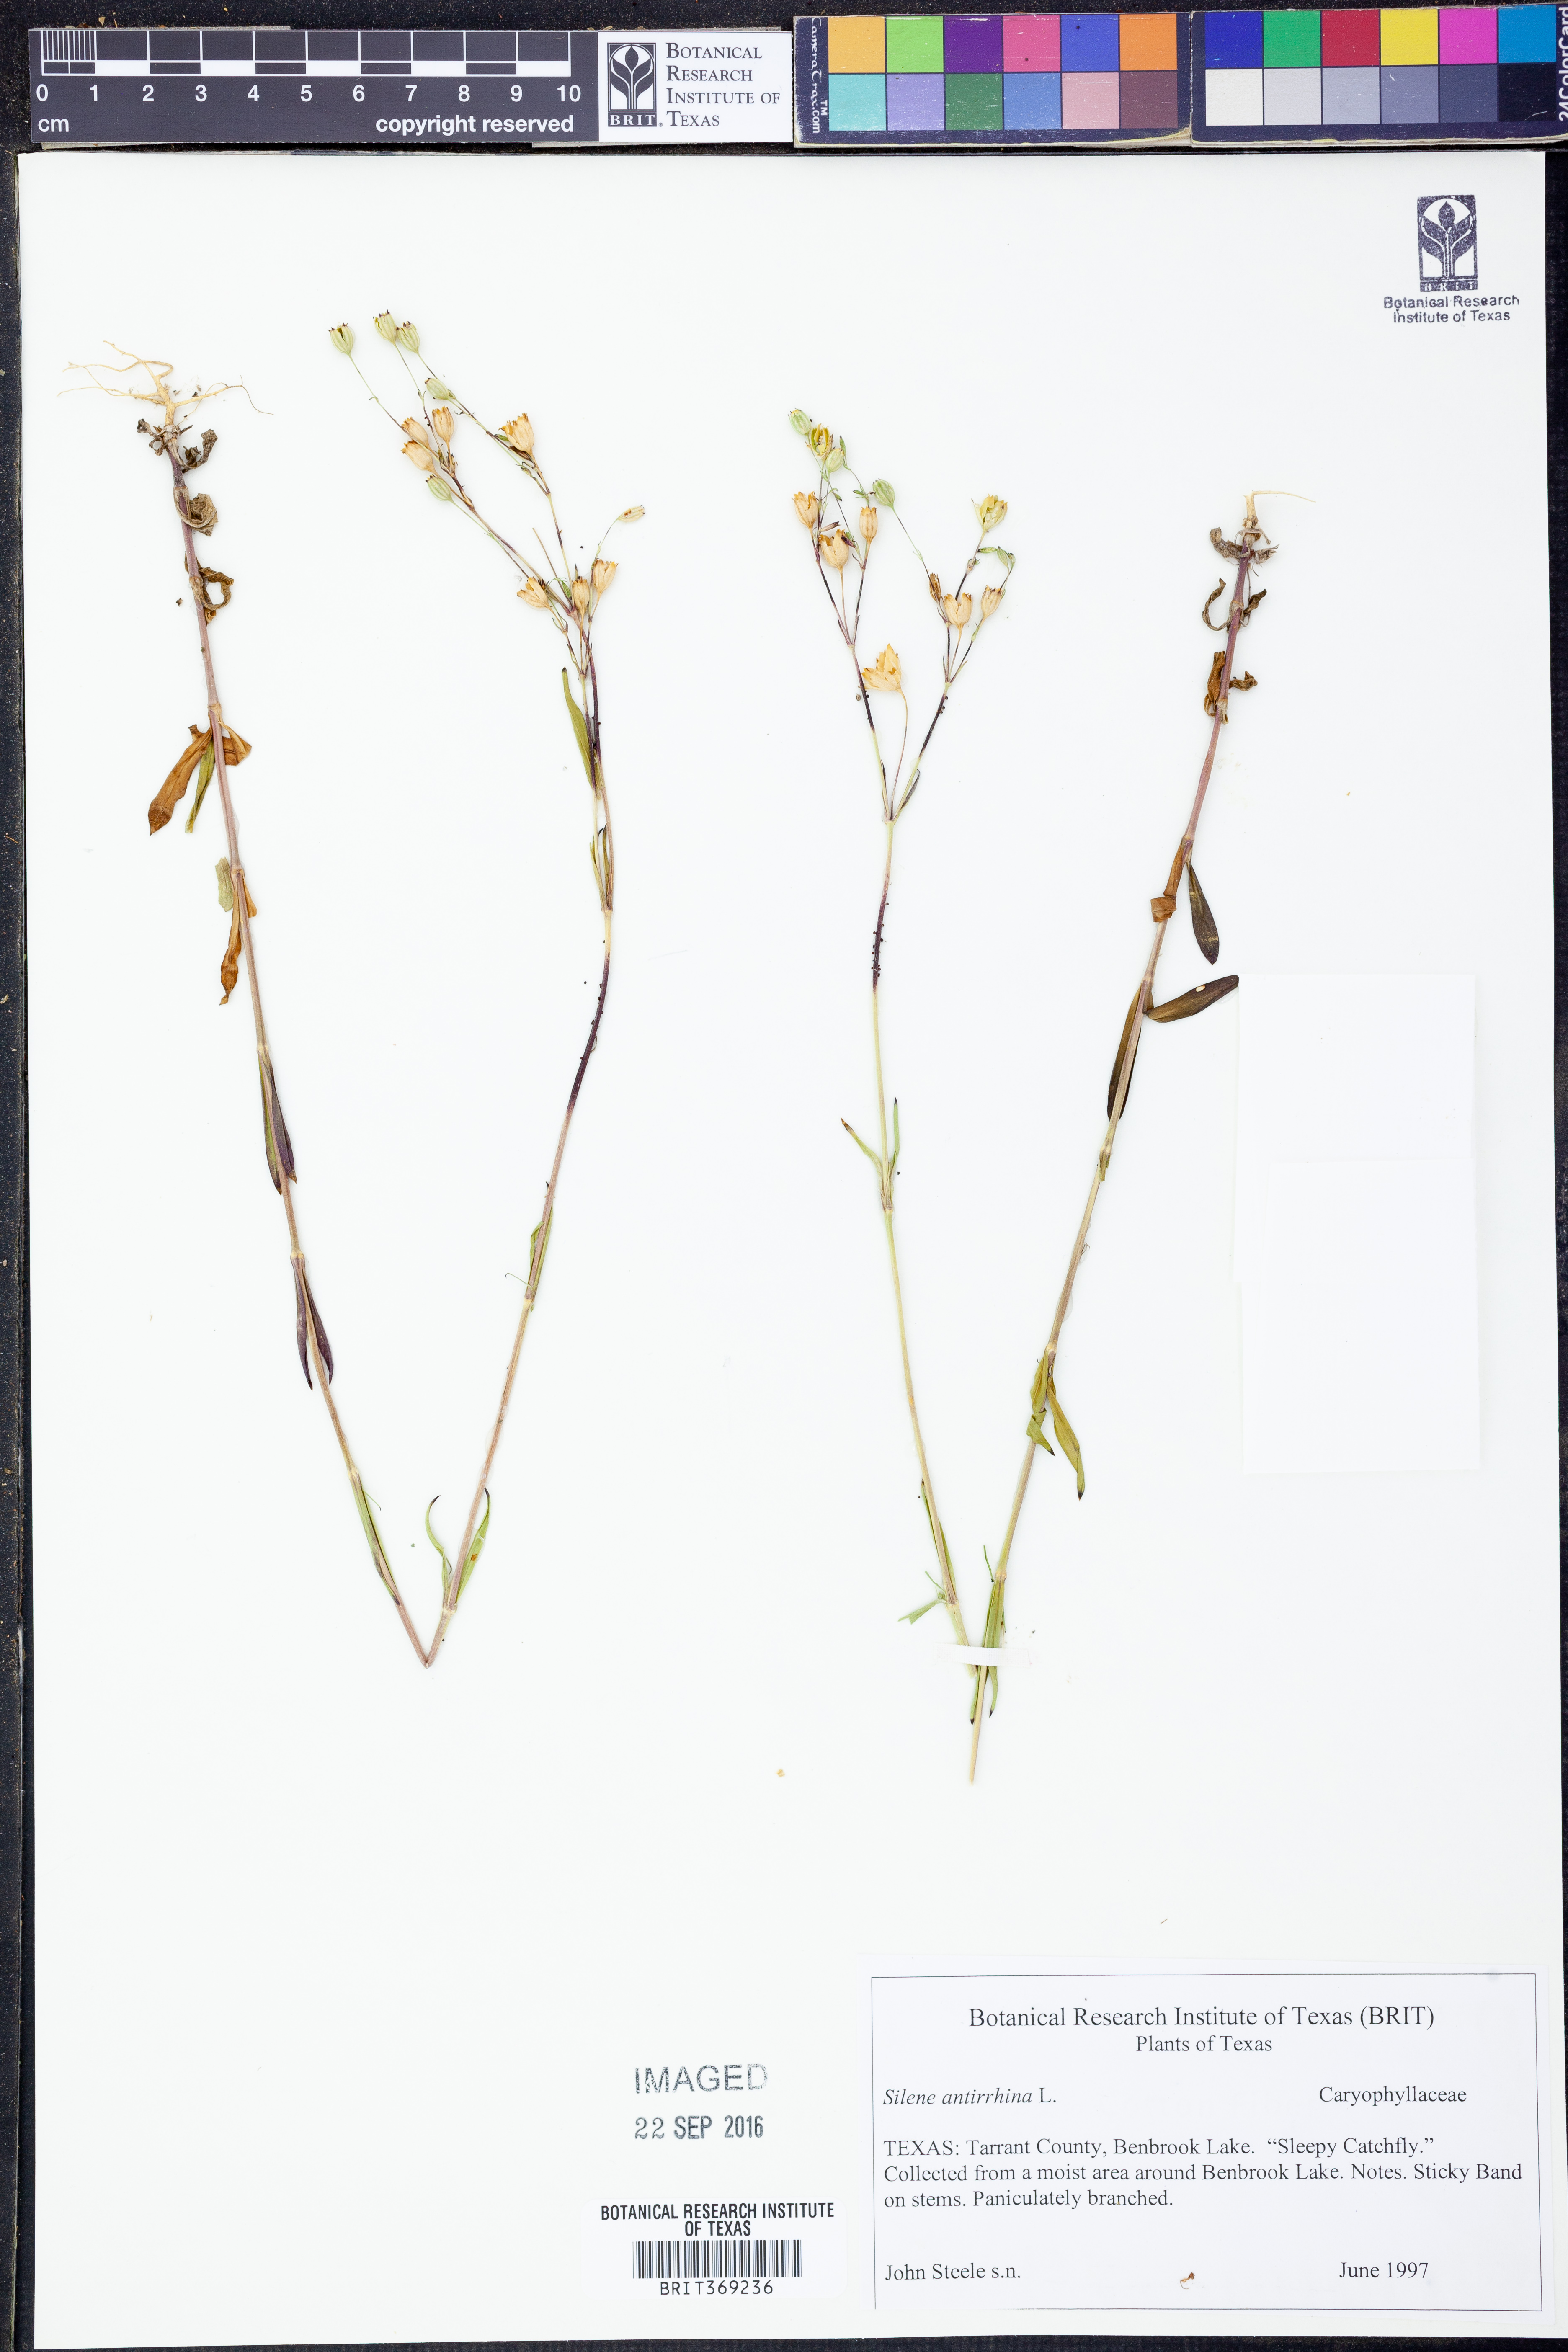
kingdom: Plantae
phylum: Tracheophyta
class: Magnoliopsida
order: Caryophyllales
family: Caryophyllaceae
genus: Silene
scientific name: Silene antirrhina
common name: Sleepy catchfly
